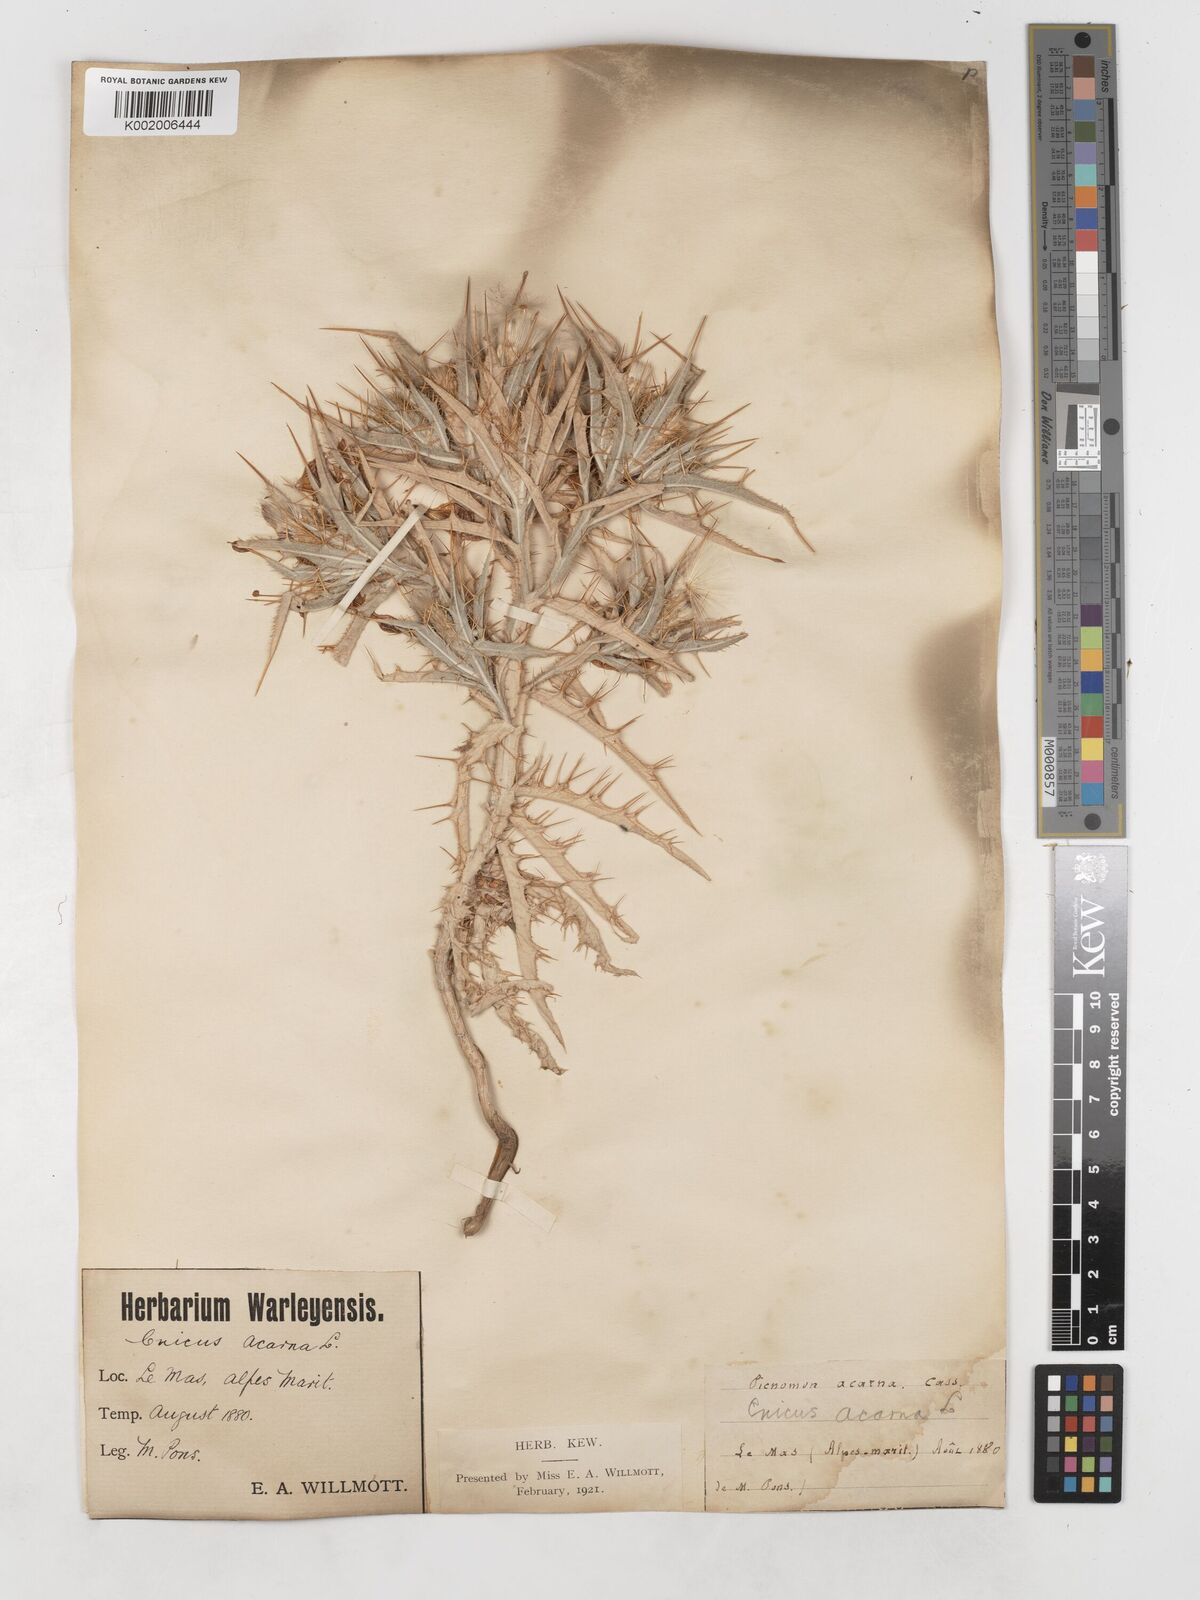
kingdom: Plantae
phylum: Tracheophyta
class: Magnoliopsida
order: Asterales
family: Asteraceae
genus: Picnomon
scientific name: Picnomon acarna
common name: Soldier thistle
